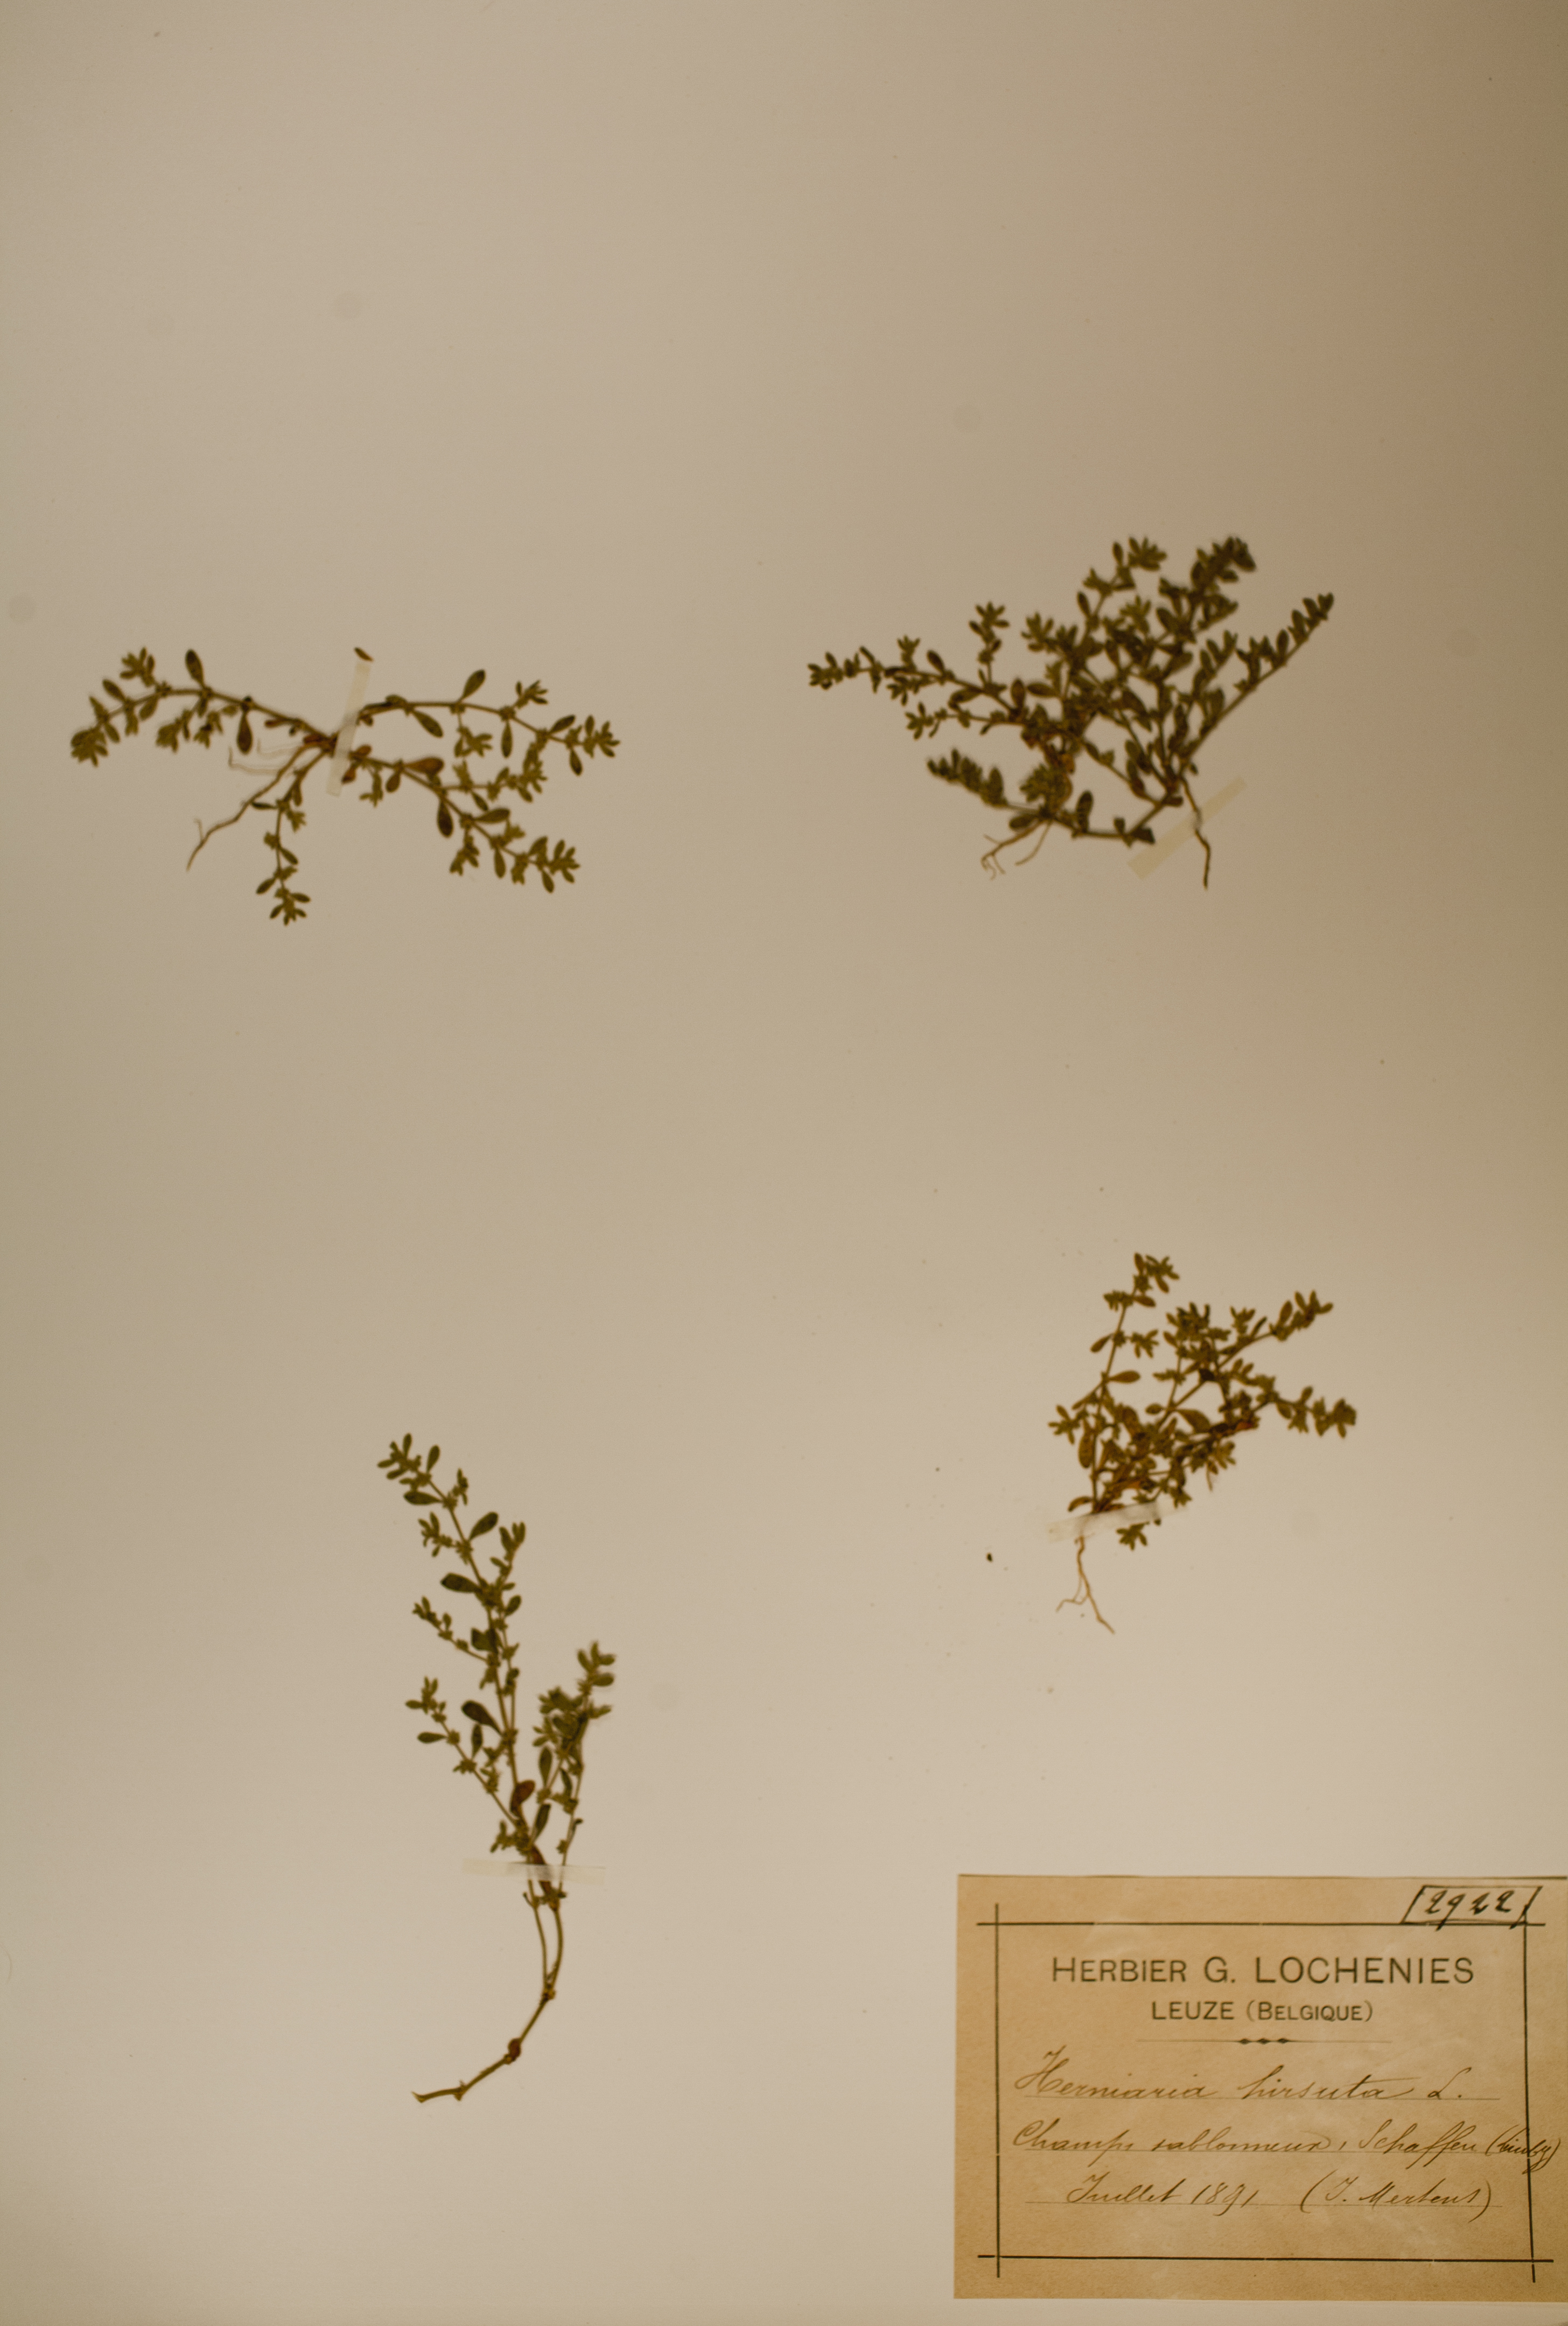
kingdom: Plantae
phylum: Tracheophyta
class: Magnoliopsida
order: Caryophyllales
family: Caryophyllaceae
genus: Herniaria
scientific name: Herniaria hirsuta
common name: Hairy rupturewort
